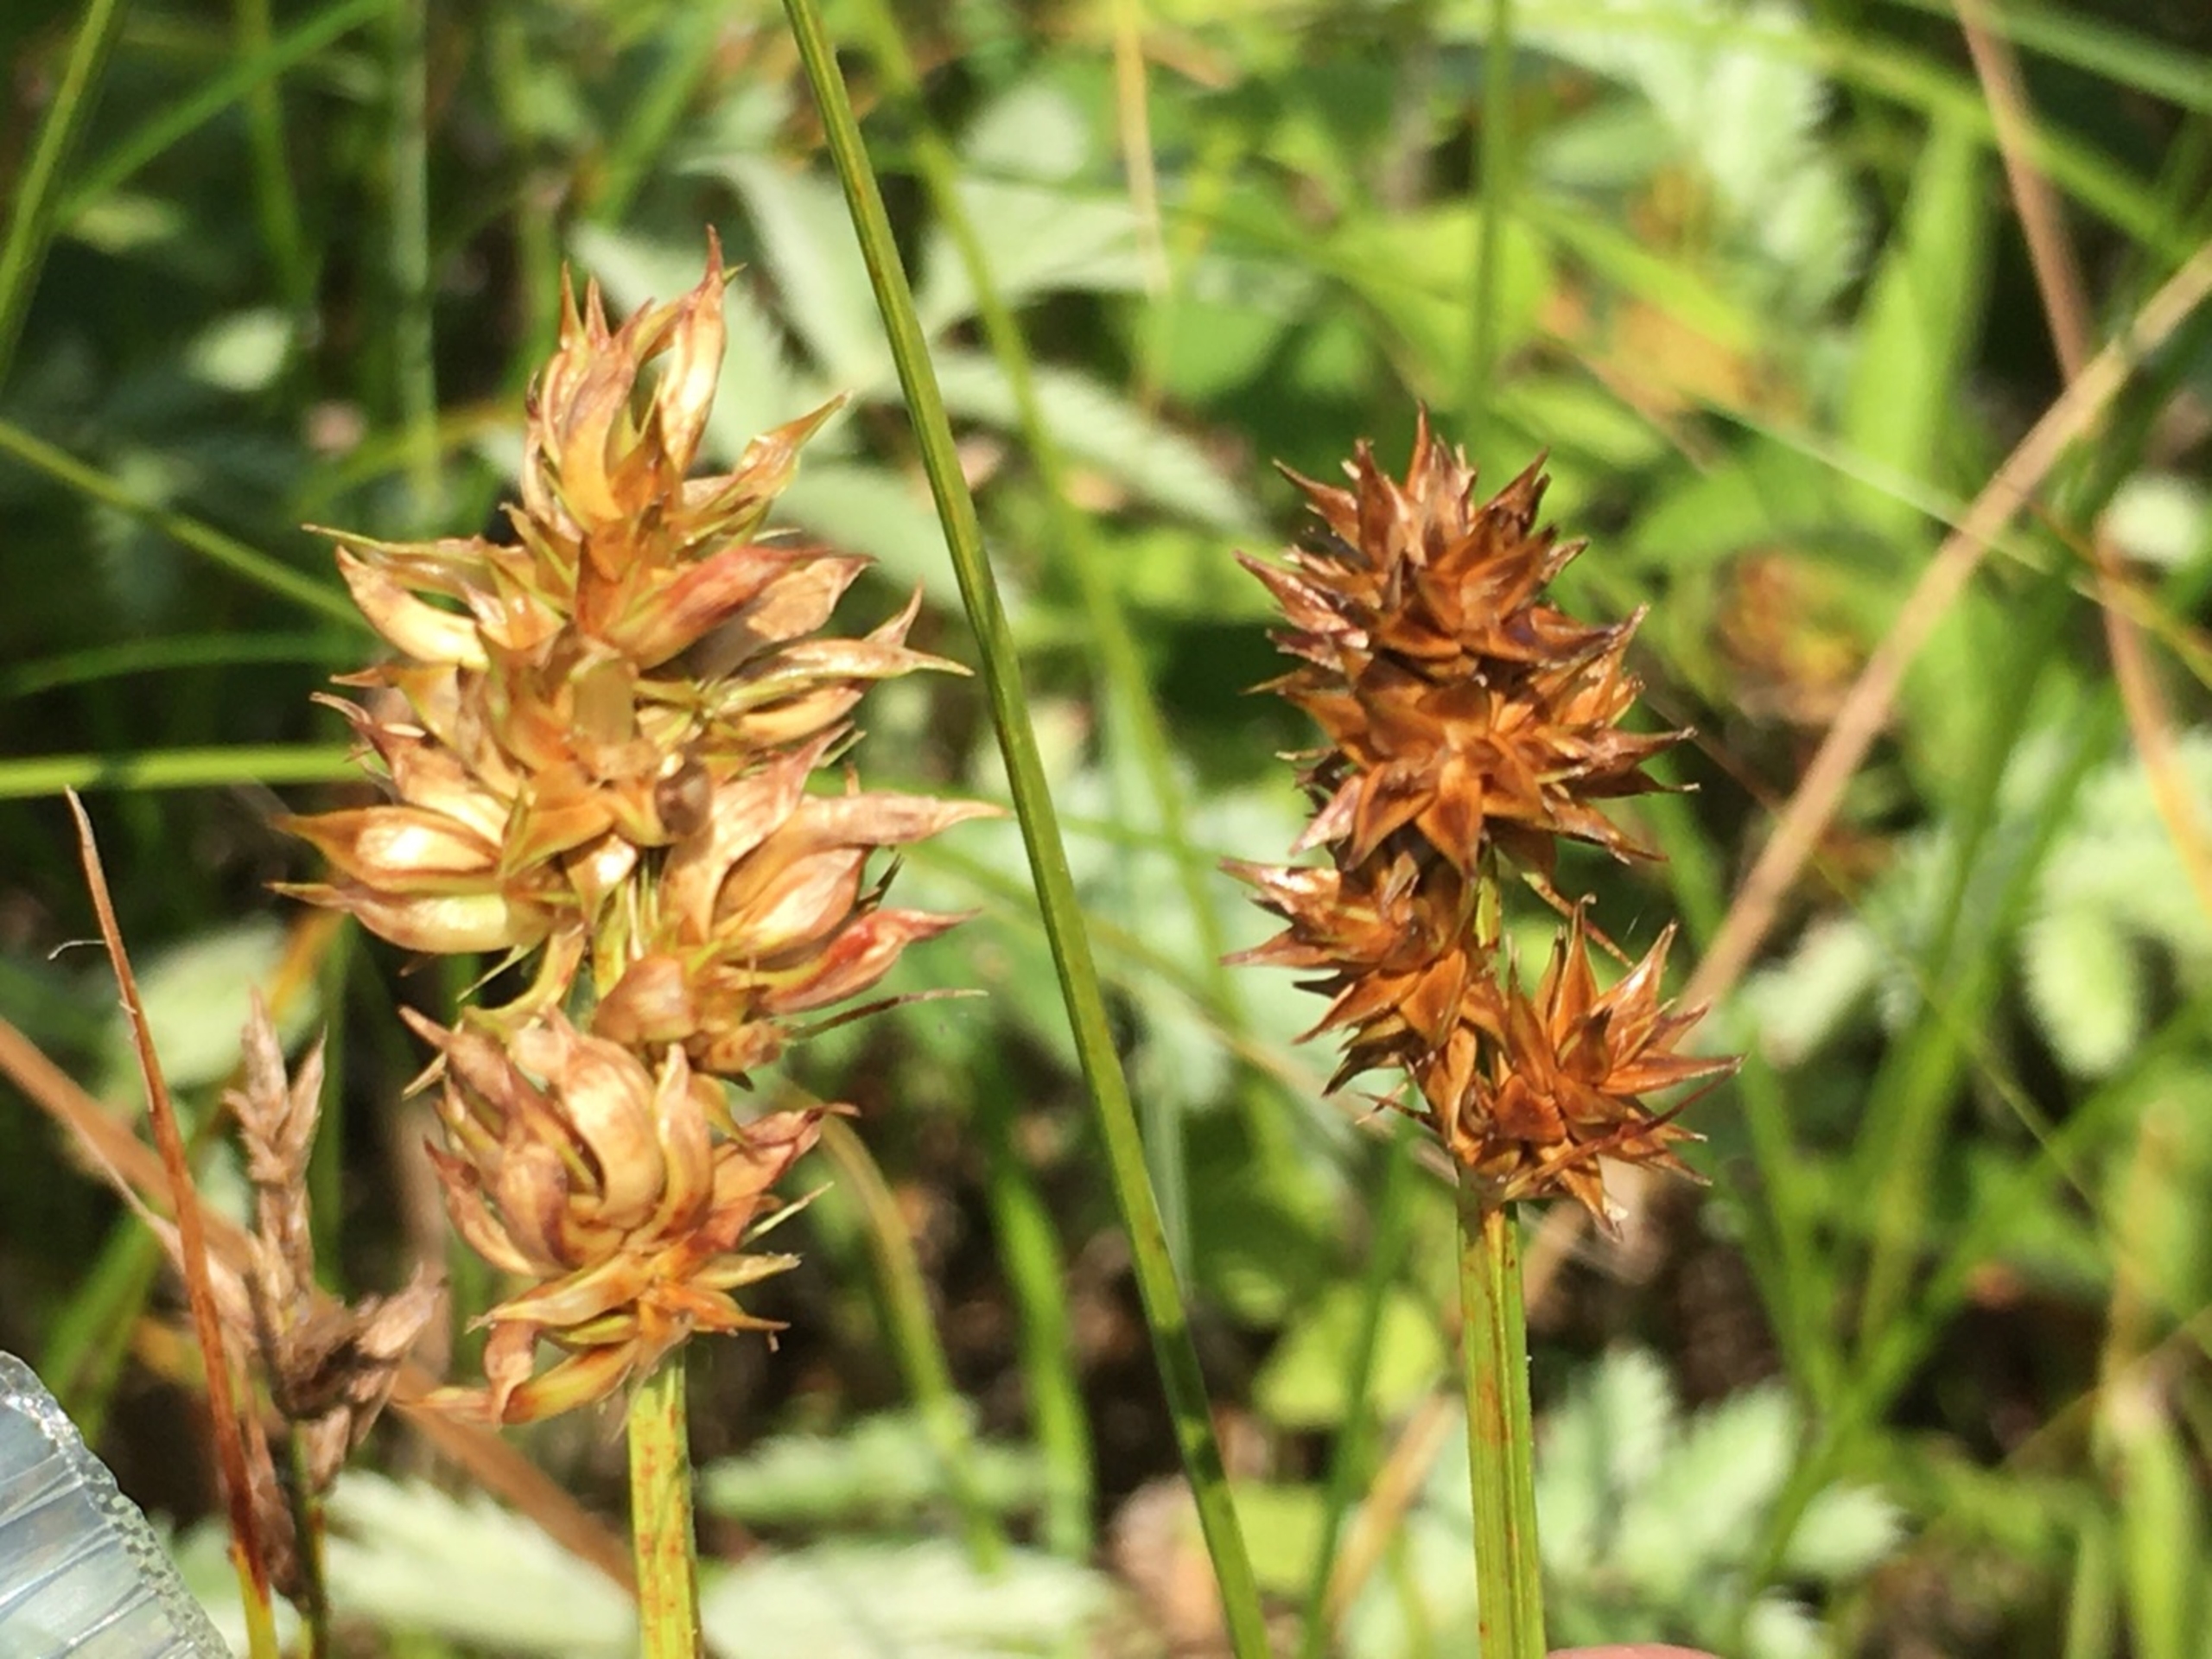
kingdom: Animalia
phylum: Arthropoda
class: Insecta
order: Diptera
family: Cecidomyiidae
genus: Dasineura
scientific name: Dasineura inflata
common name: Syltstargalmyg
